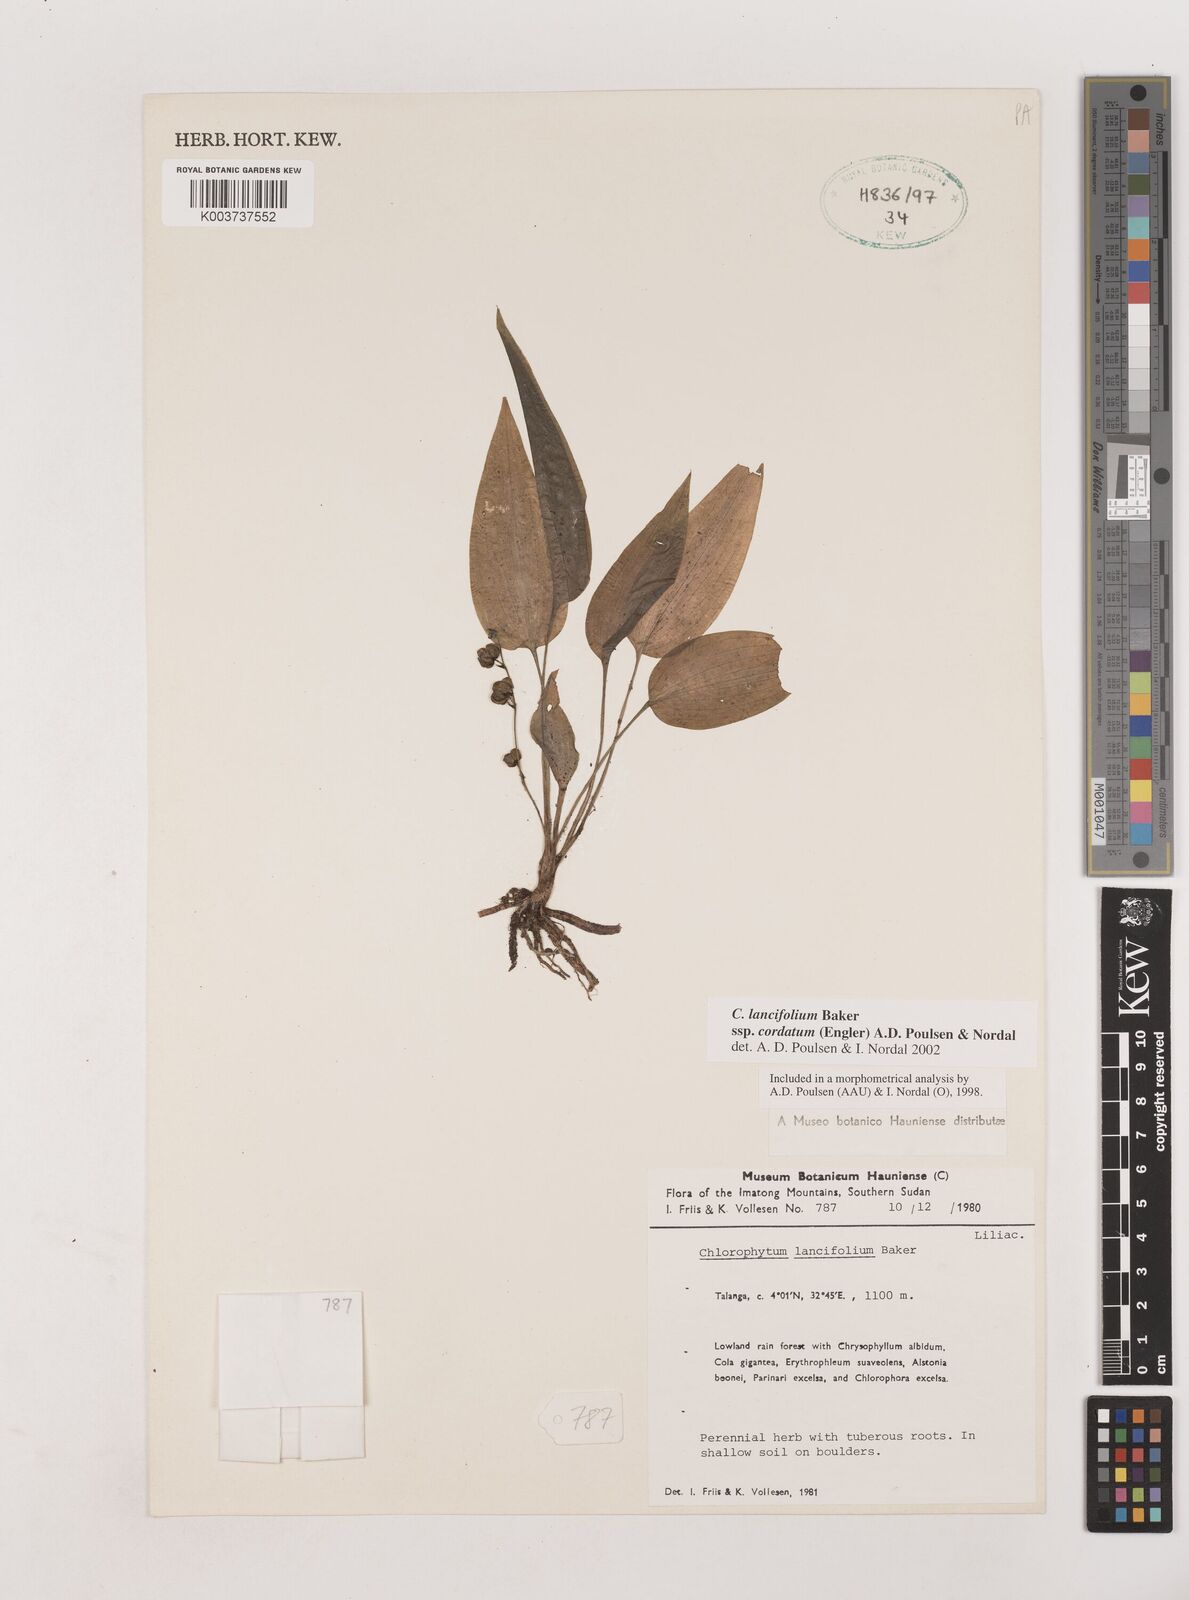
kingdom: Plantae
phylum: Tracheophyta
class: Liliopsida
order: Asparagales
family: Asparagaceae
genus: Chlorophytum
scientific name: Chlorophytum lancifolium
